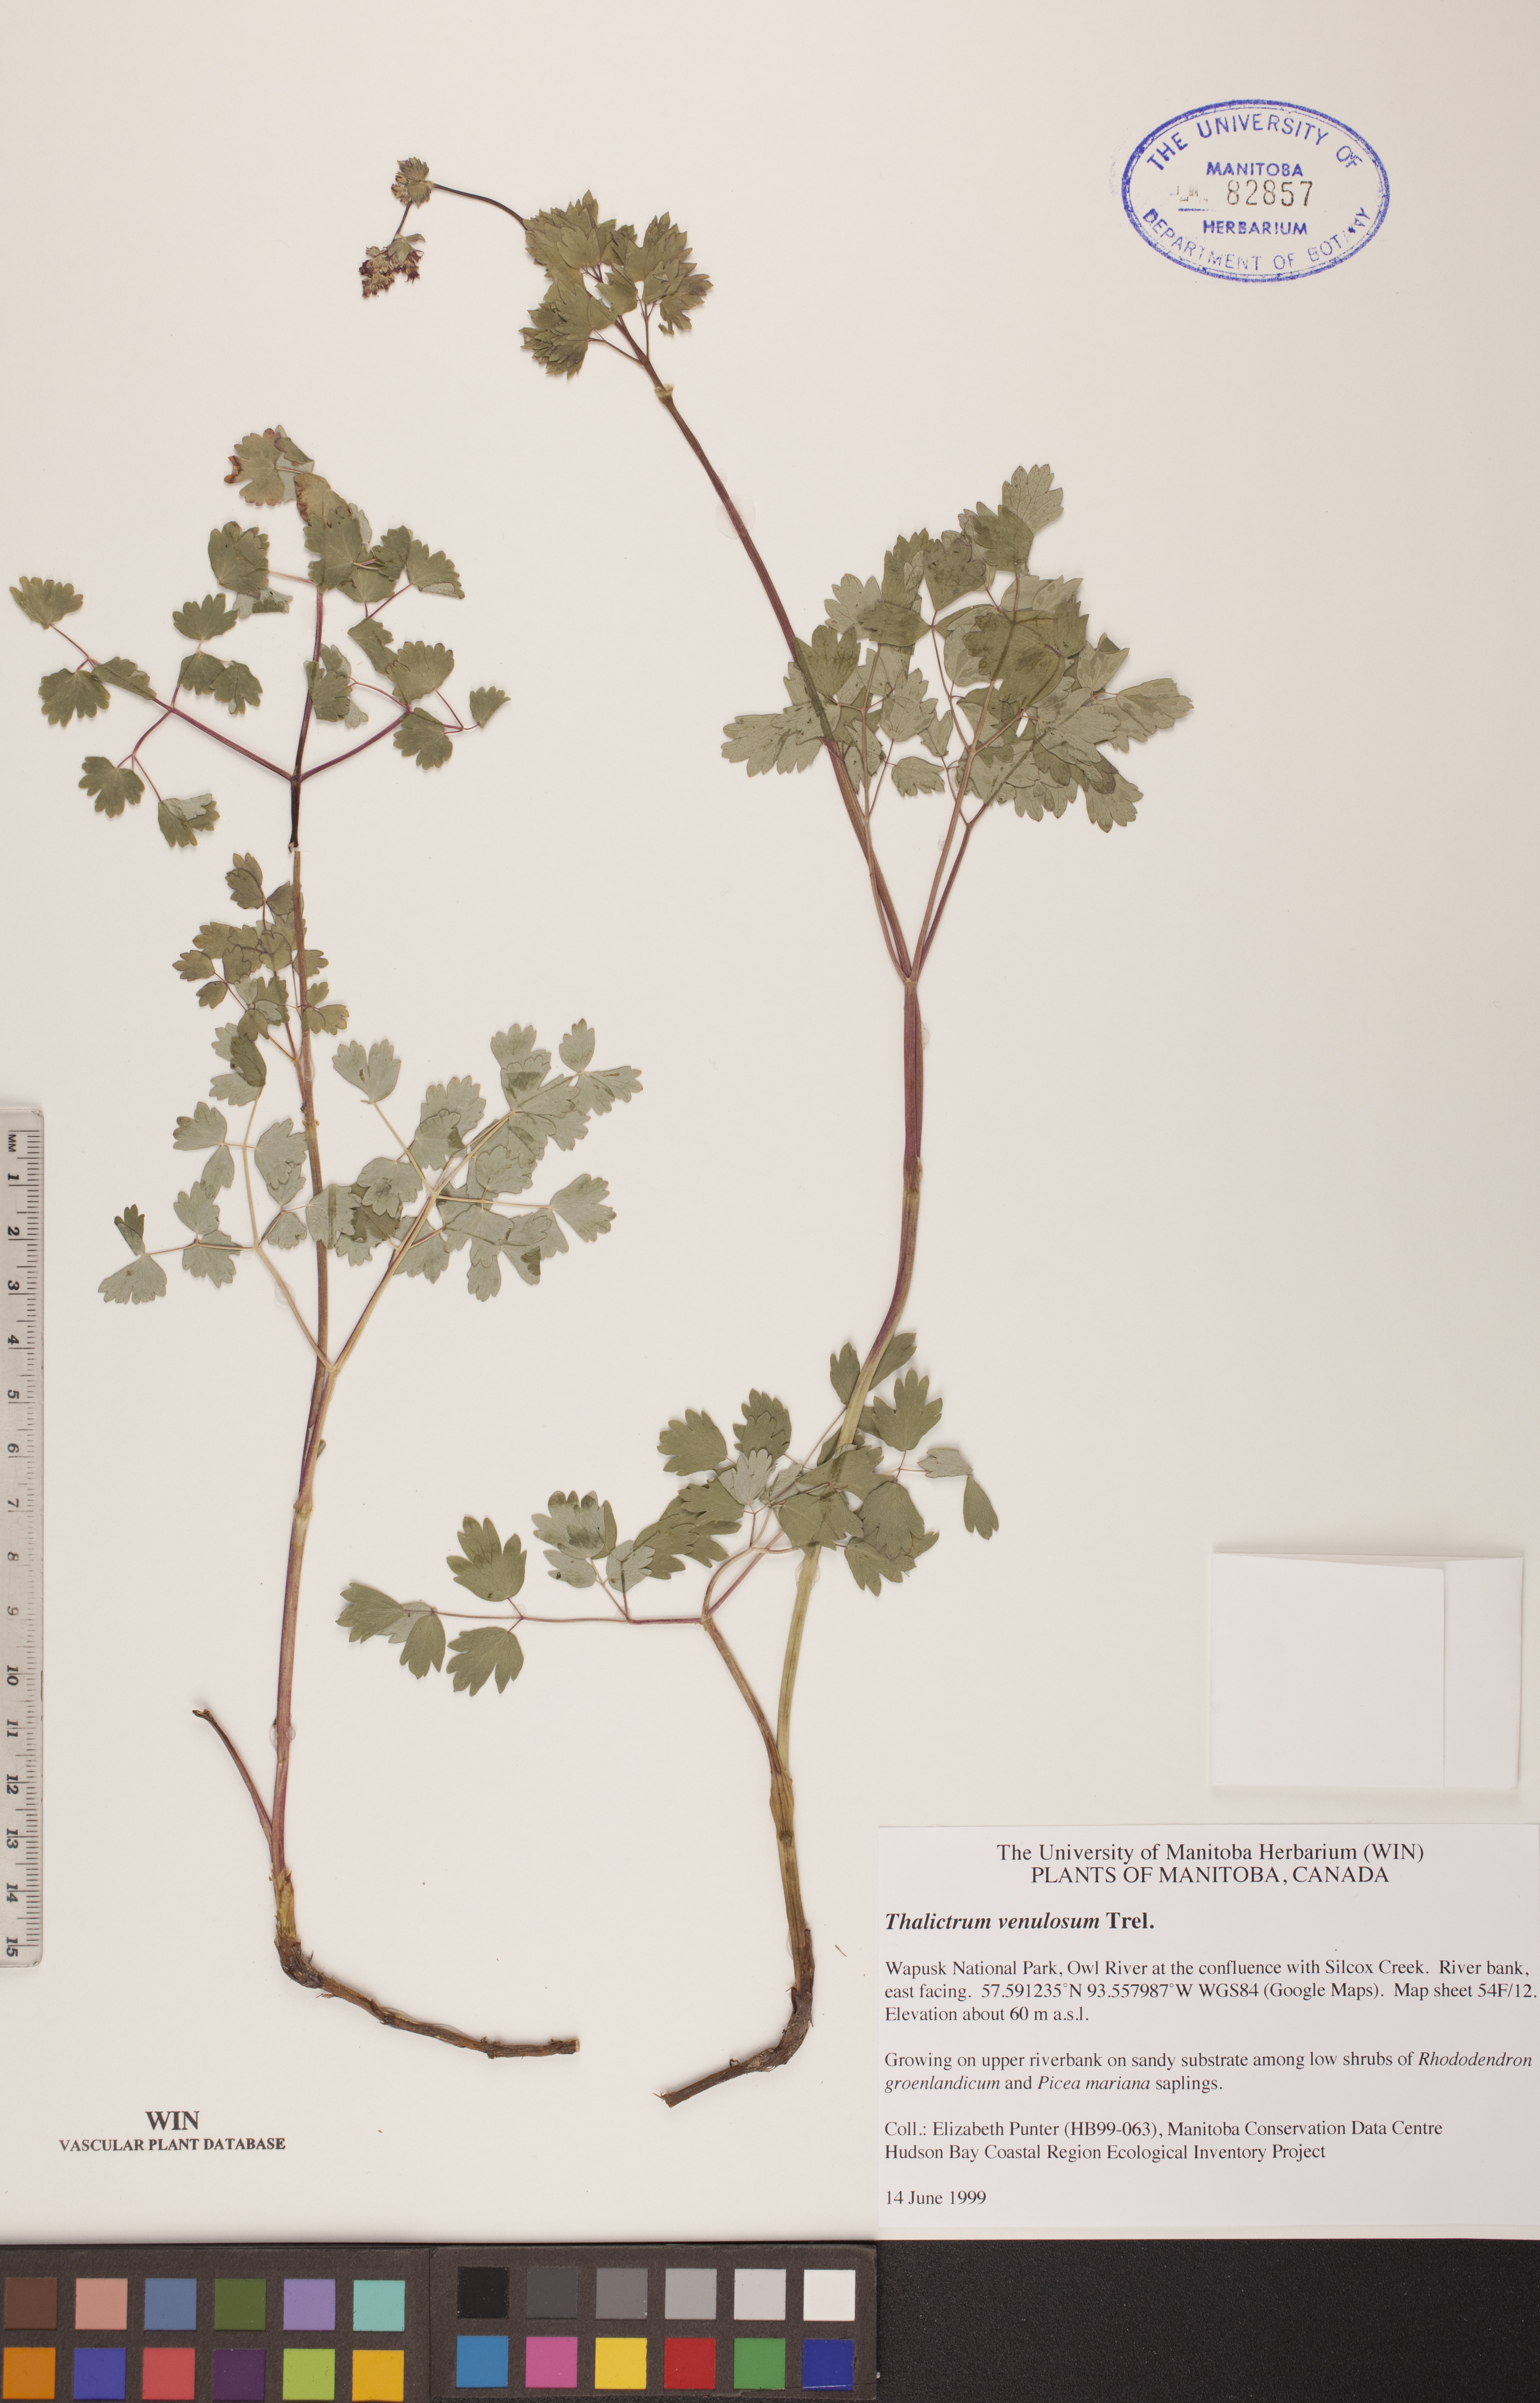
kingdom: Plantae
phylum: Tracheophyta
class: Magnoliopsida
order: Ranunculales
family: Ranunculaceae
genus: Thalictrum
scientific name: Thalictrum venulosum
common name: Early meadow-rue
